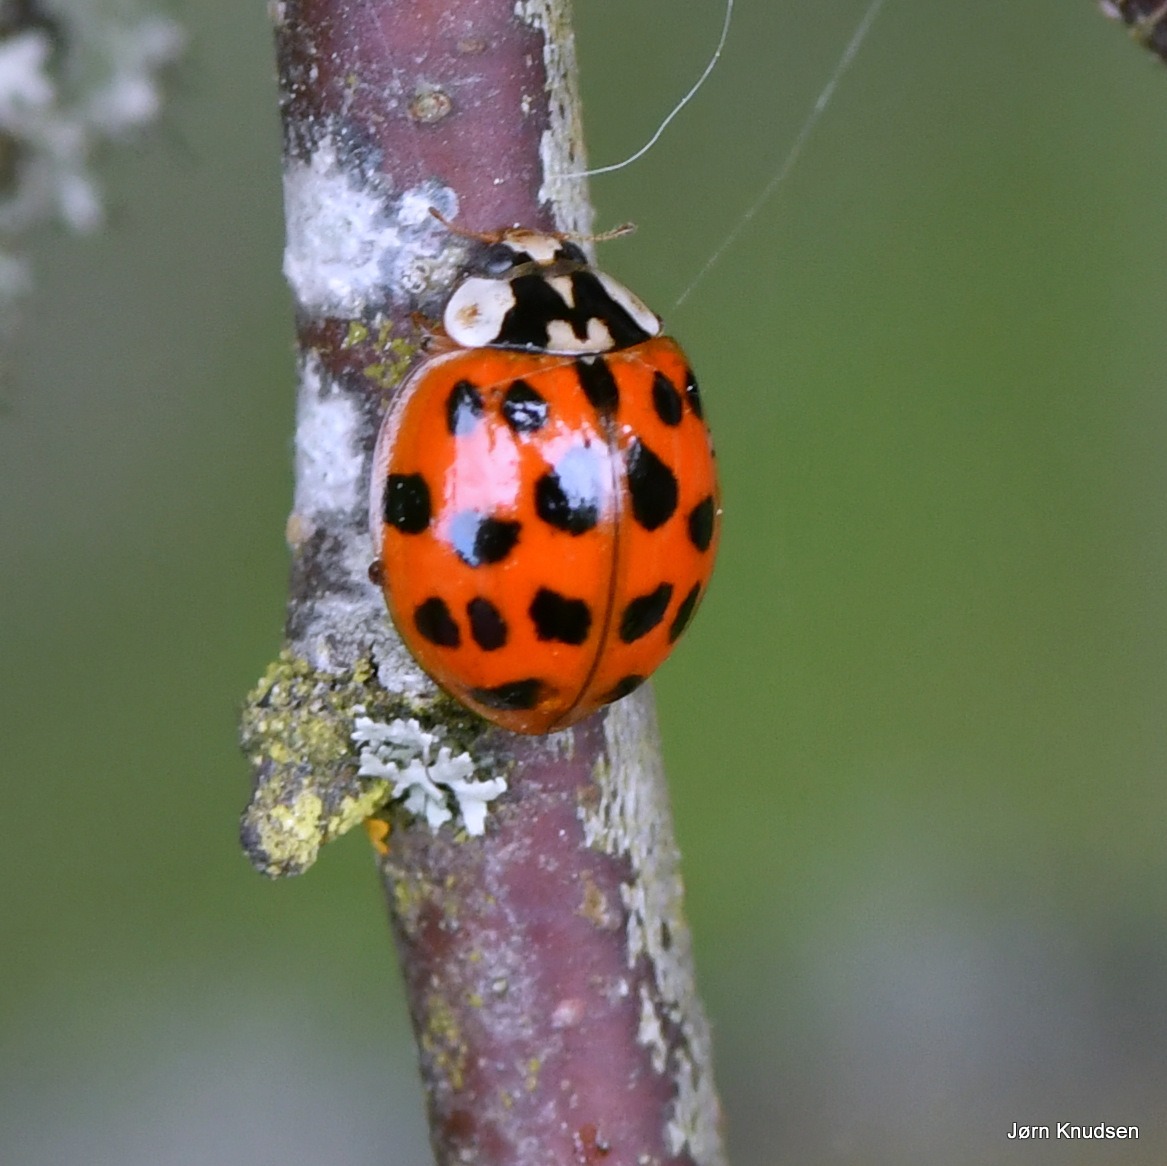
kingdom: Animalia
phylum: Arthropoda
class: Insecta
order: Coleoptera
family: Coccinellidae
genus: Harmonia
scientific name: Harmonia axyridis
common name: Harlekinmariehøne
